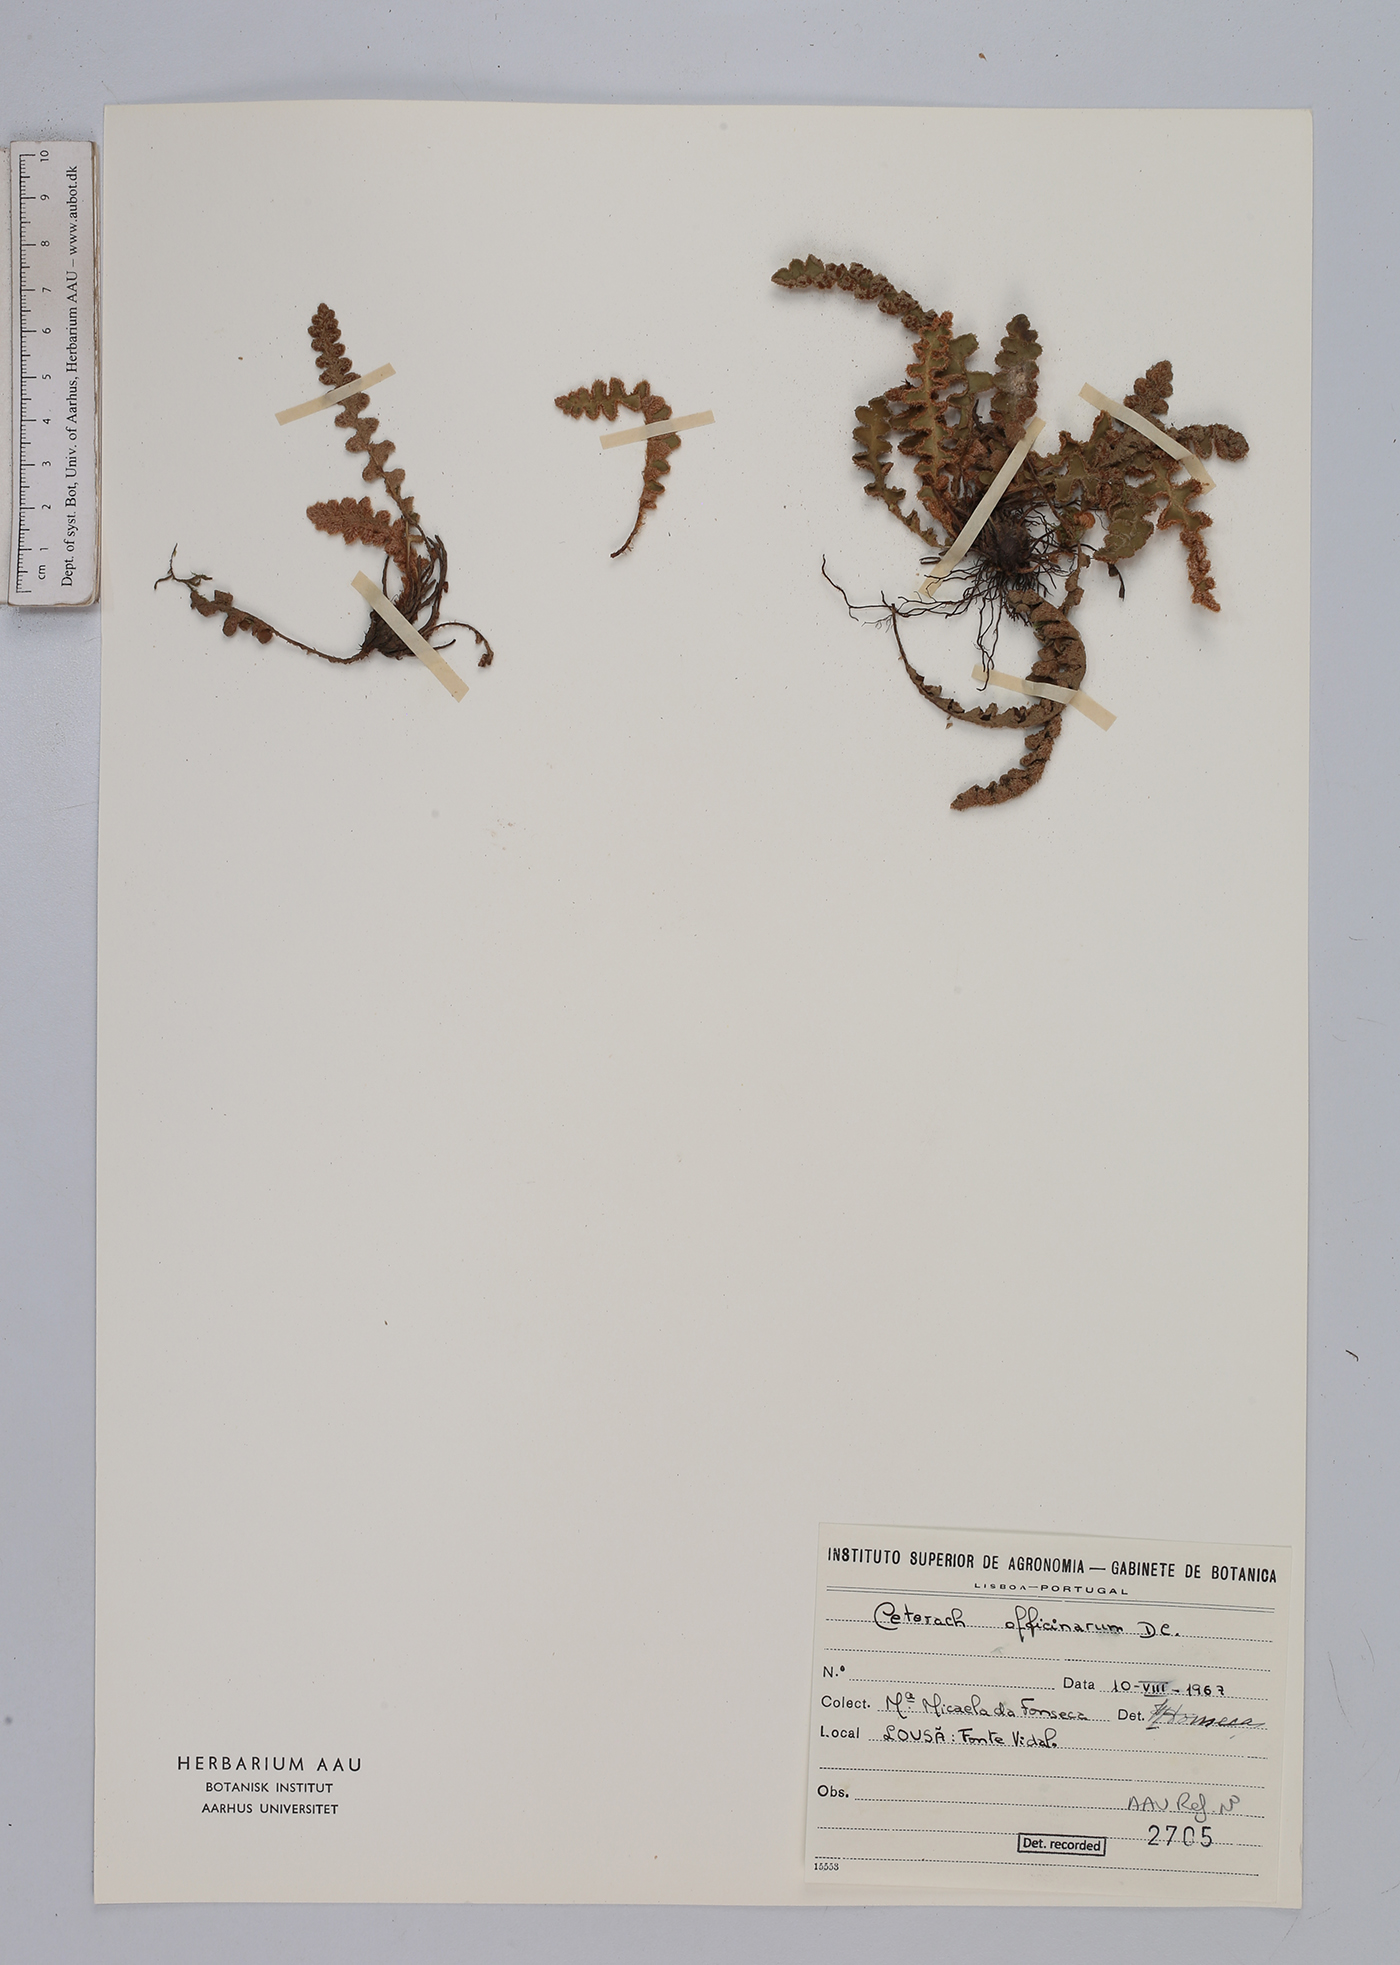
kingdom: Plantae
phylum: Tracheophyta
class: Polypodiopsida
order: Polypodiales
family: Aspleniaceae
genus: Asplenium
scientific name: Asplenium ceterach
